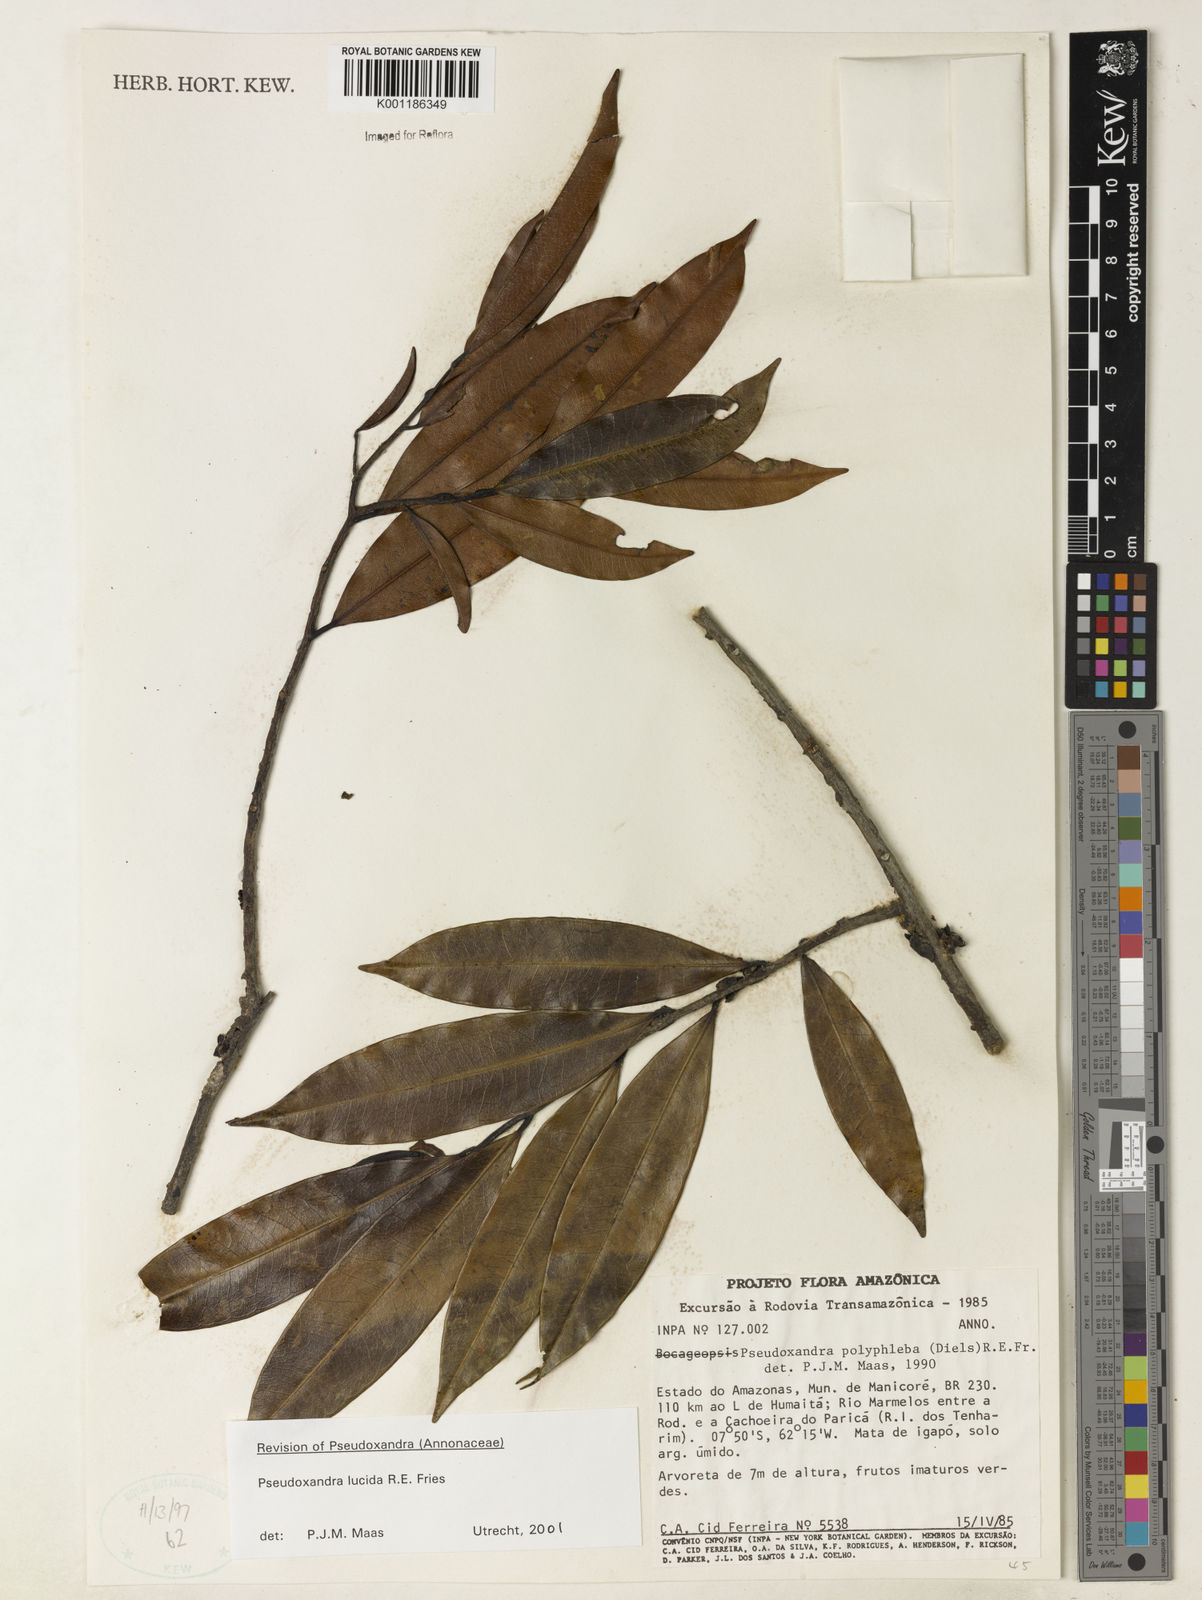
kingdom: Plantae
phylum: Tracheophyta
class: Magnoliopsida
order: Magnoliales
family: Annonaceae
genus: Pseudoxandra
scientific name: Pseudoxandra lucida
